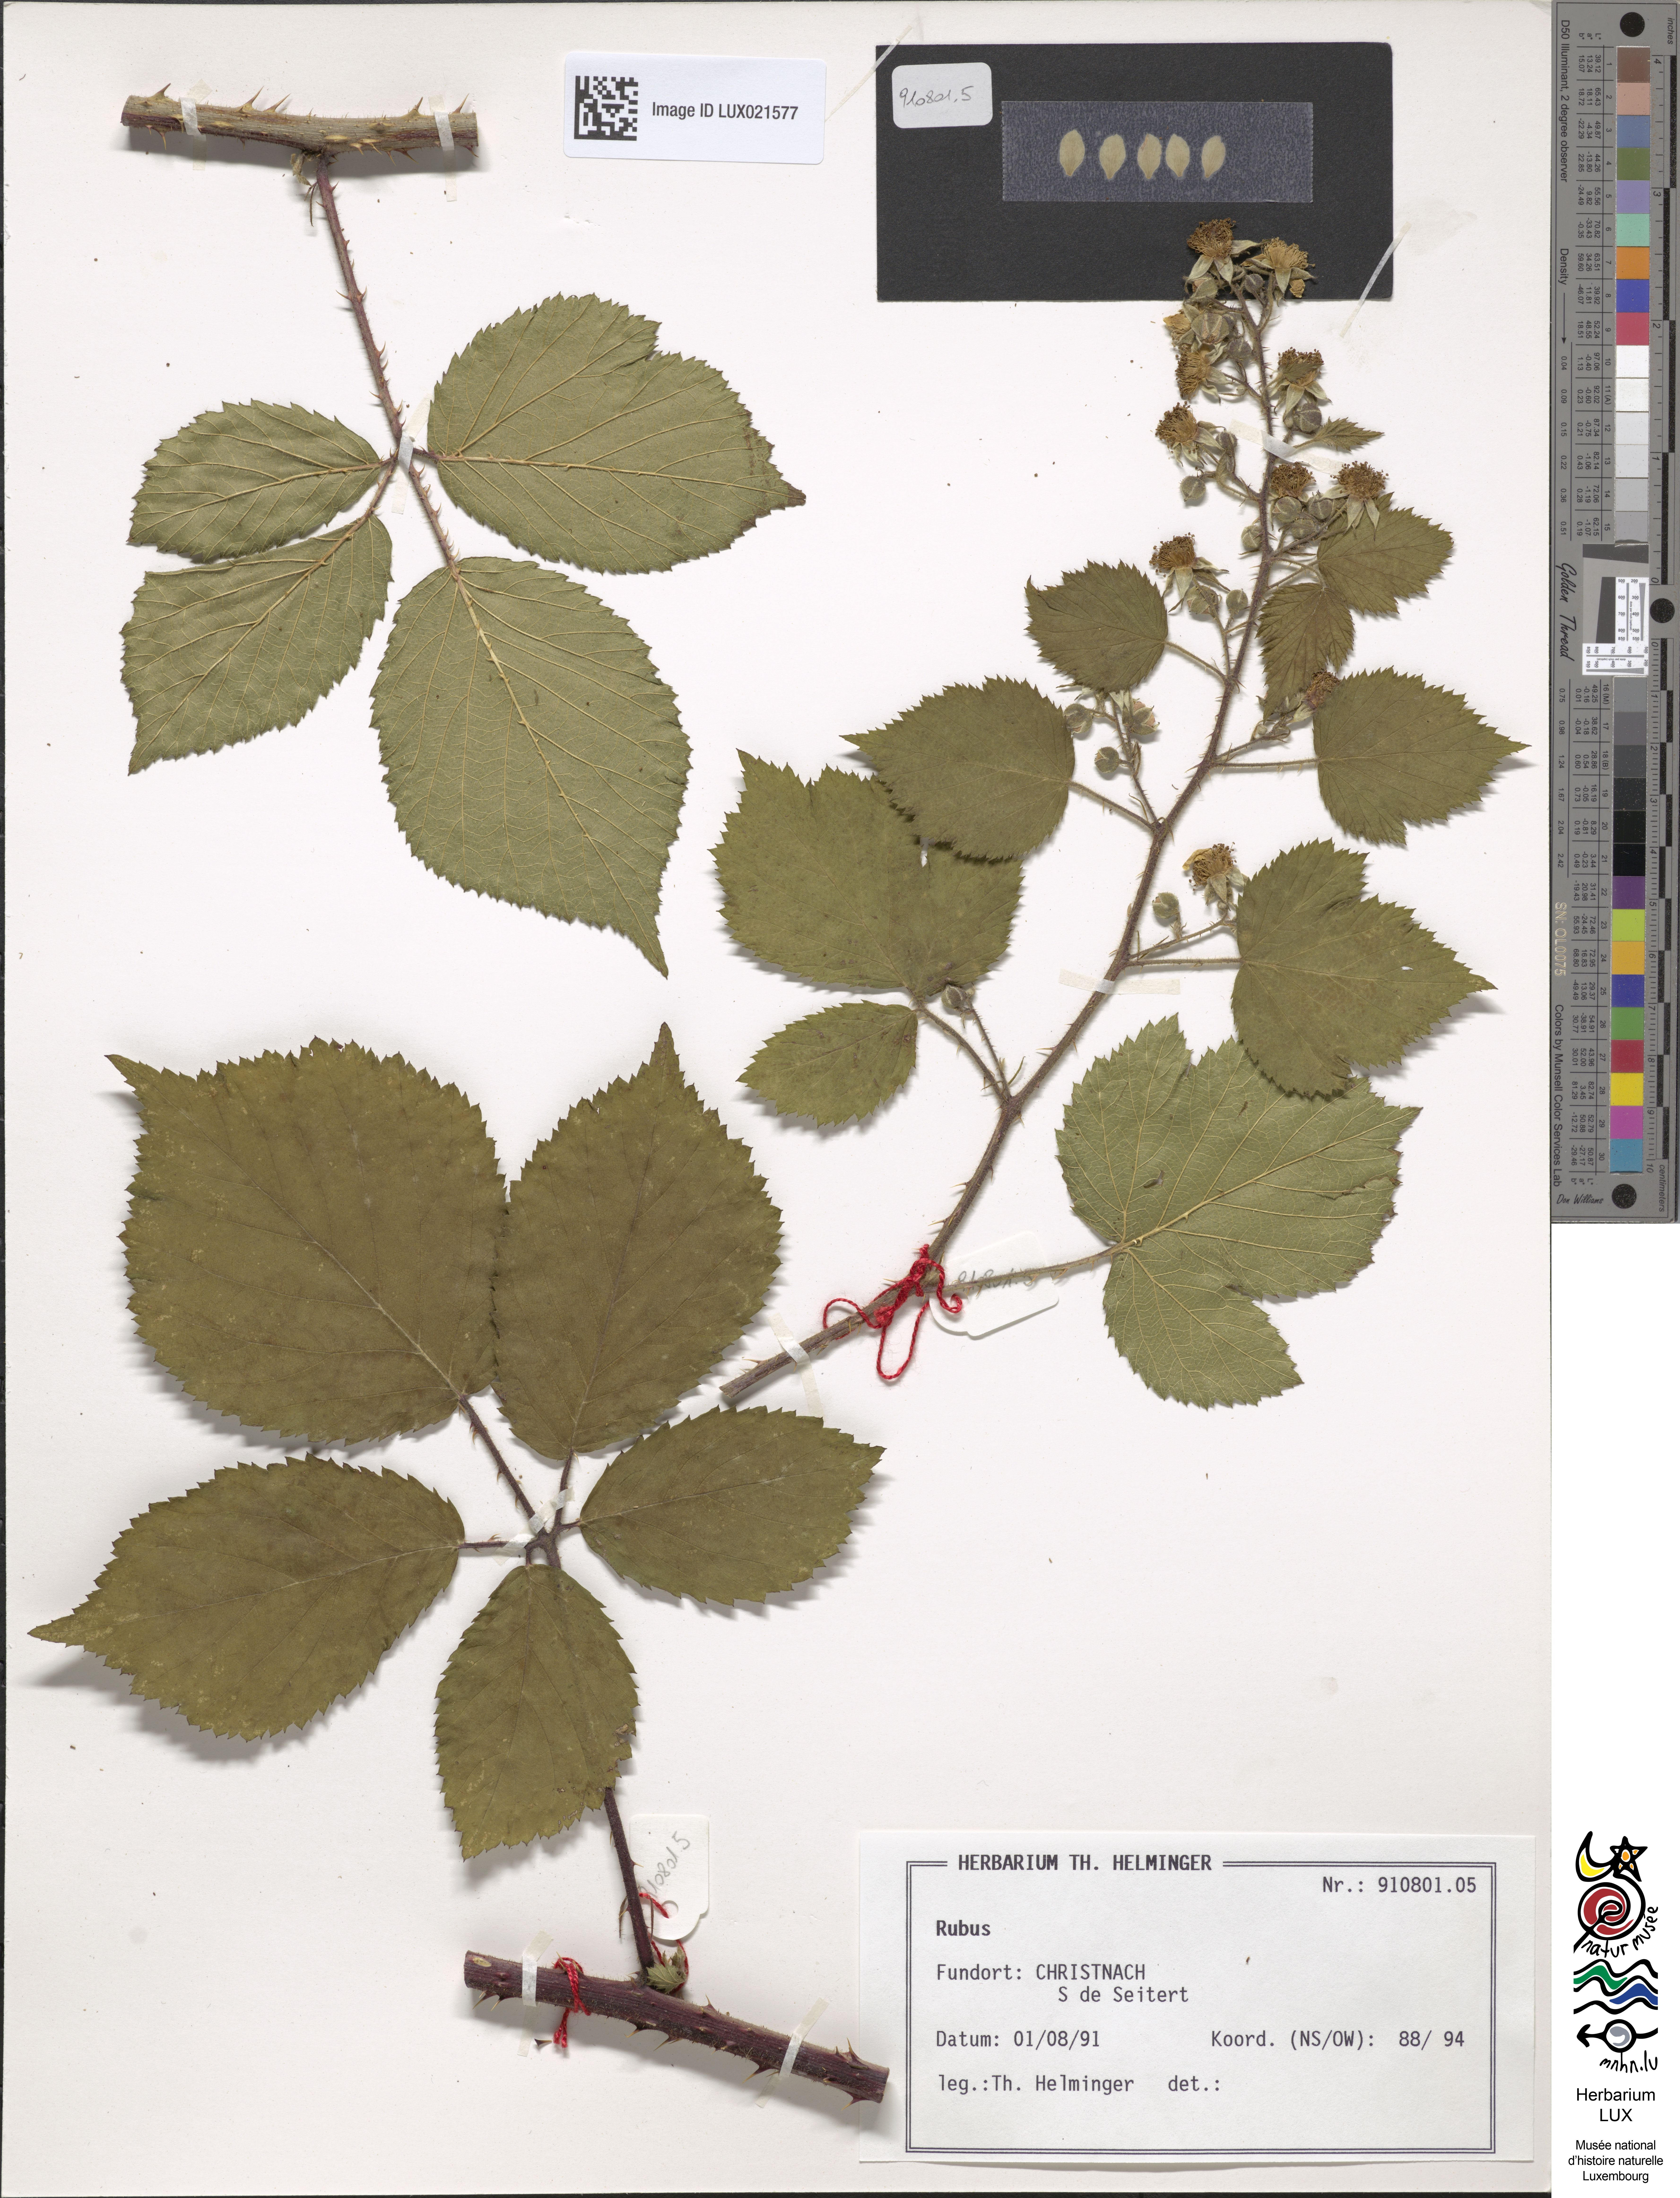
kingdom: Plantae
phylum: Tracheophyta
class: Magnoliopsida
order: Rosales
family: Rosaceae
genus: Rubus
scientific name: Rubus
